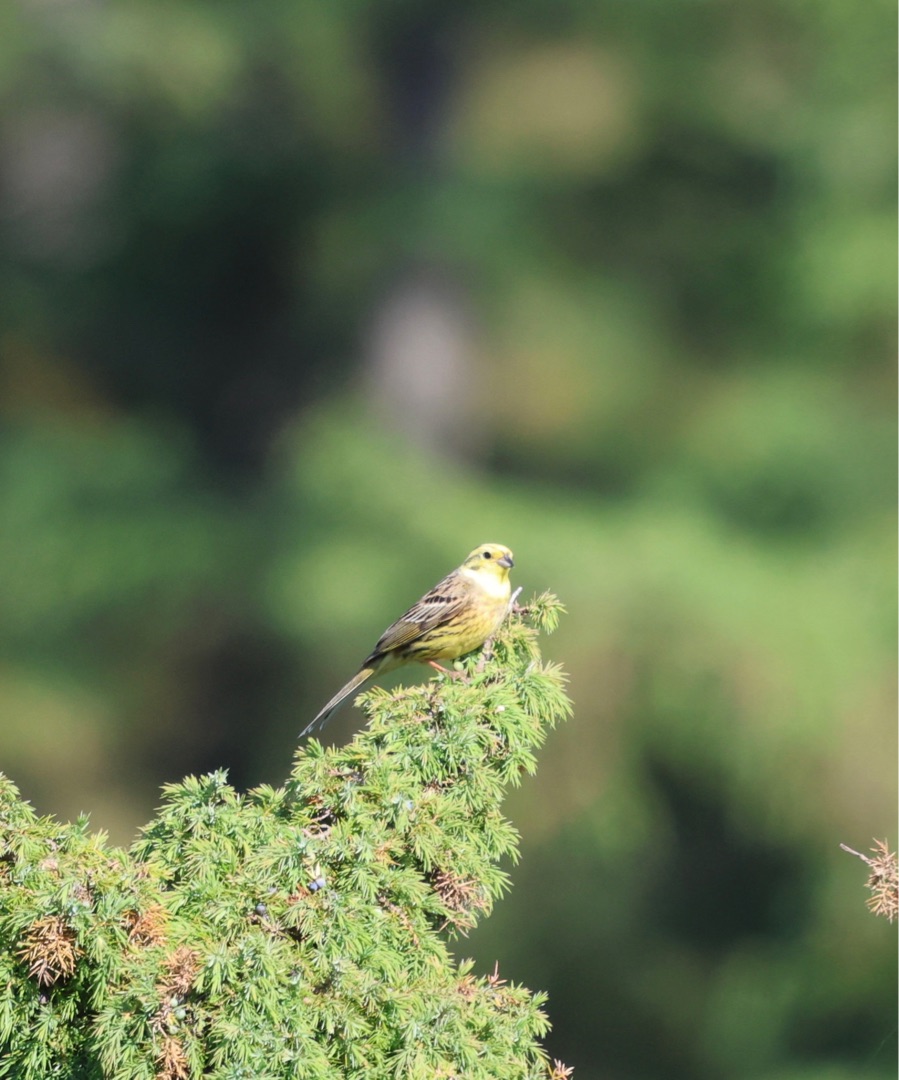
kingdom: Animalia
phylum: Chordata
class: Aves
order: Passeriformes
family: Emberizidae
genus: Emberiza
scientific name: Emberiza citrinella
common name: Gulspurv
